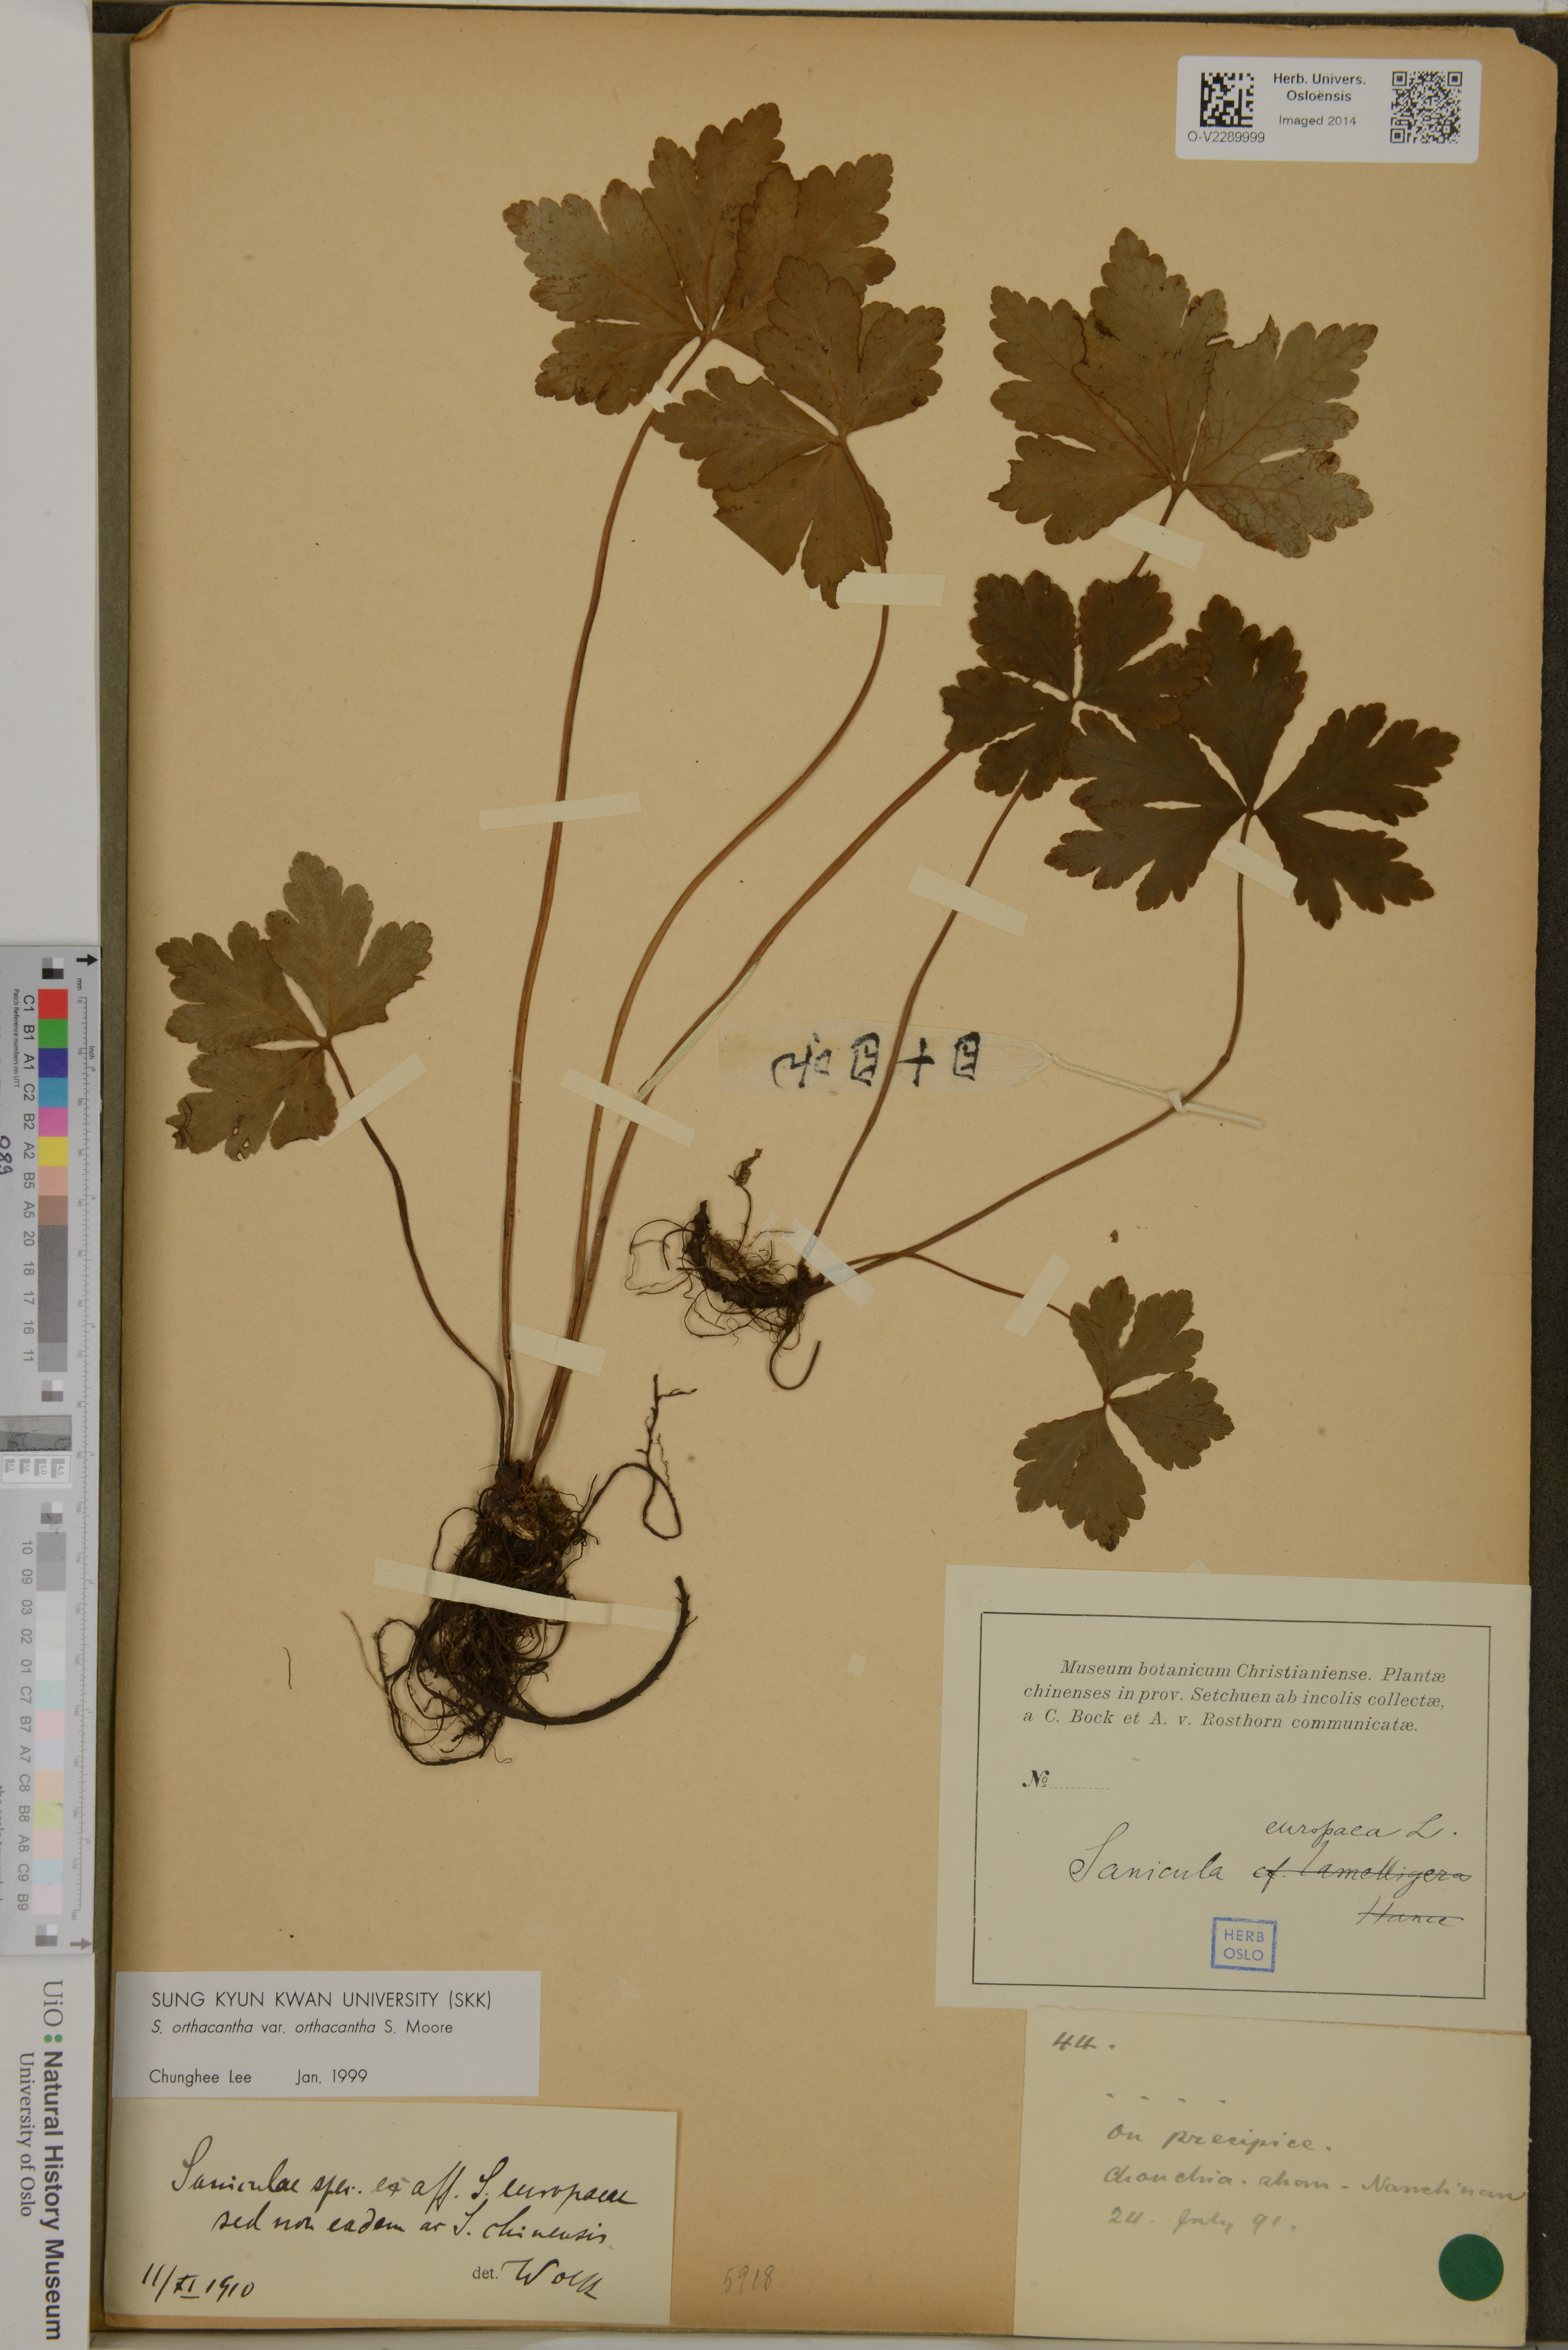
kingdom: Plantae
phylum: Tracheophyta
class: Magnoliopsida
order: Apiales
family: Apiaceae
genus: Sanicula
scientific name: Sanicula europaea
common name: Sanicle
